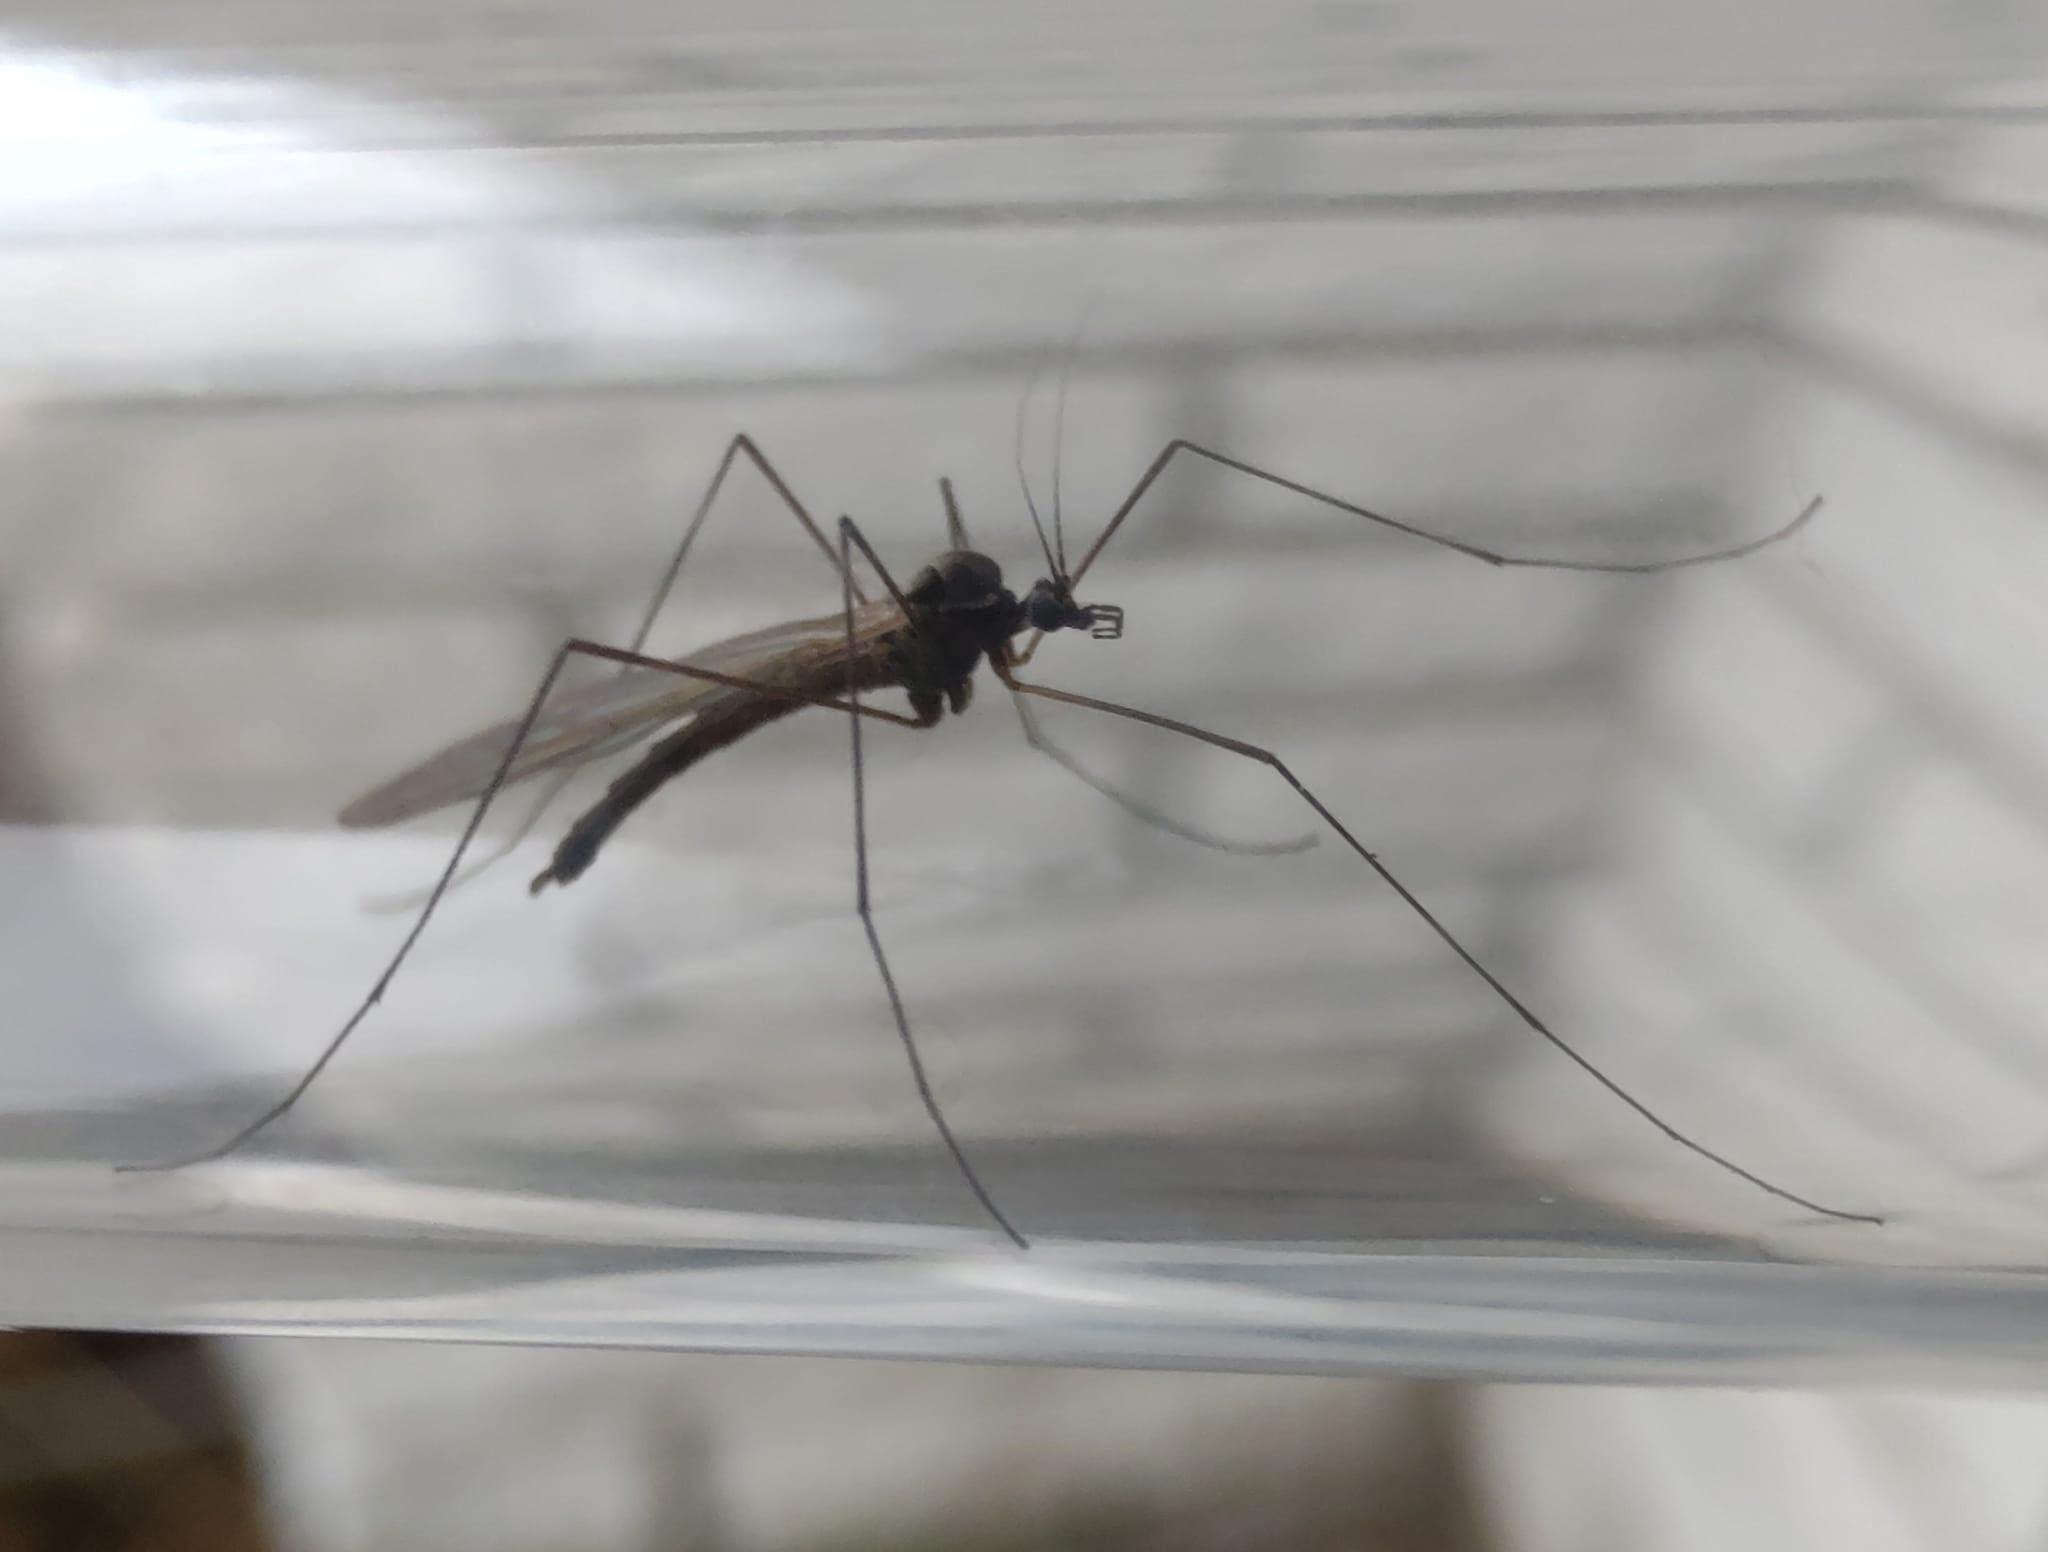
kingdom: Animalia
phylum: Arthropoda
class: Insecta
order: Diptera
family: Trichoceridae
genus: Trichocera
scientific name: Trichocera saltator
